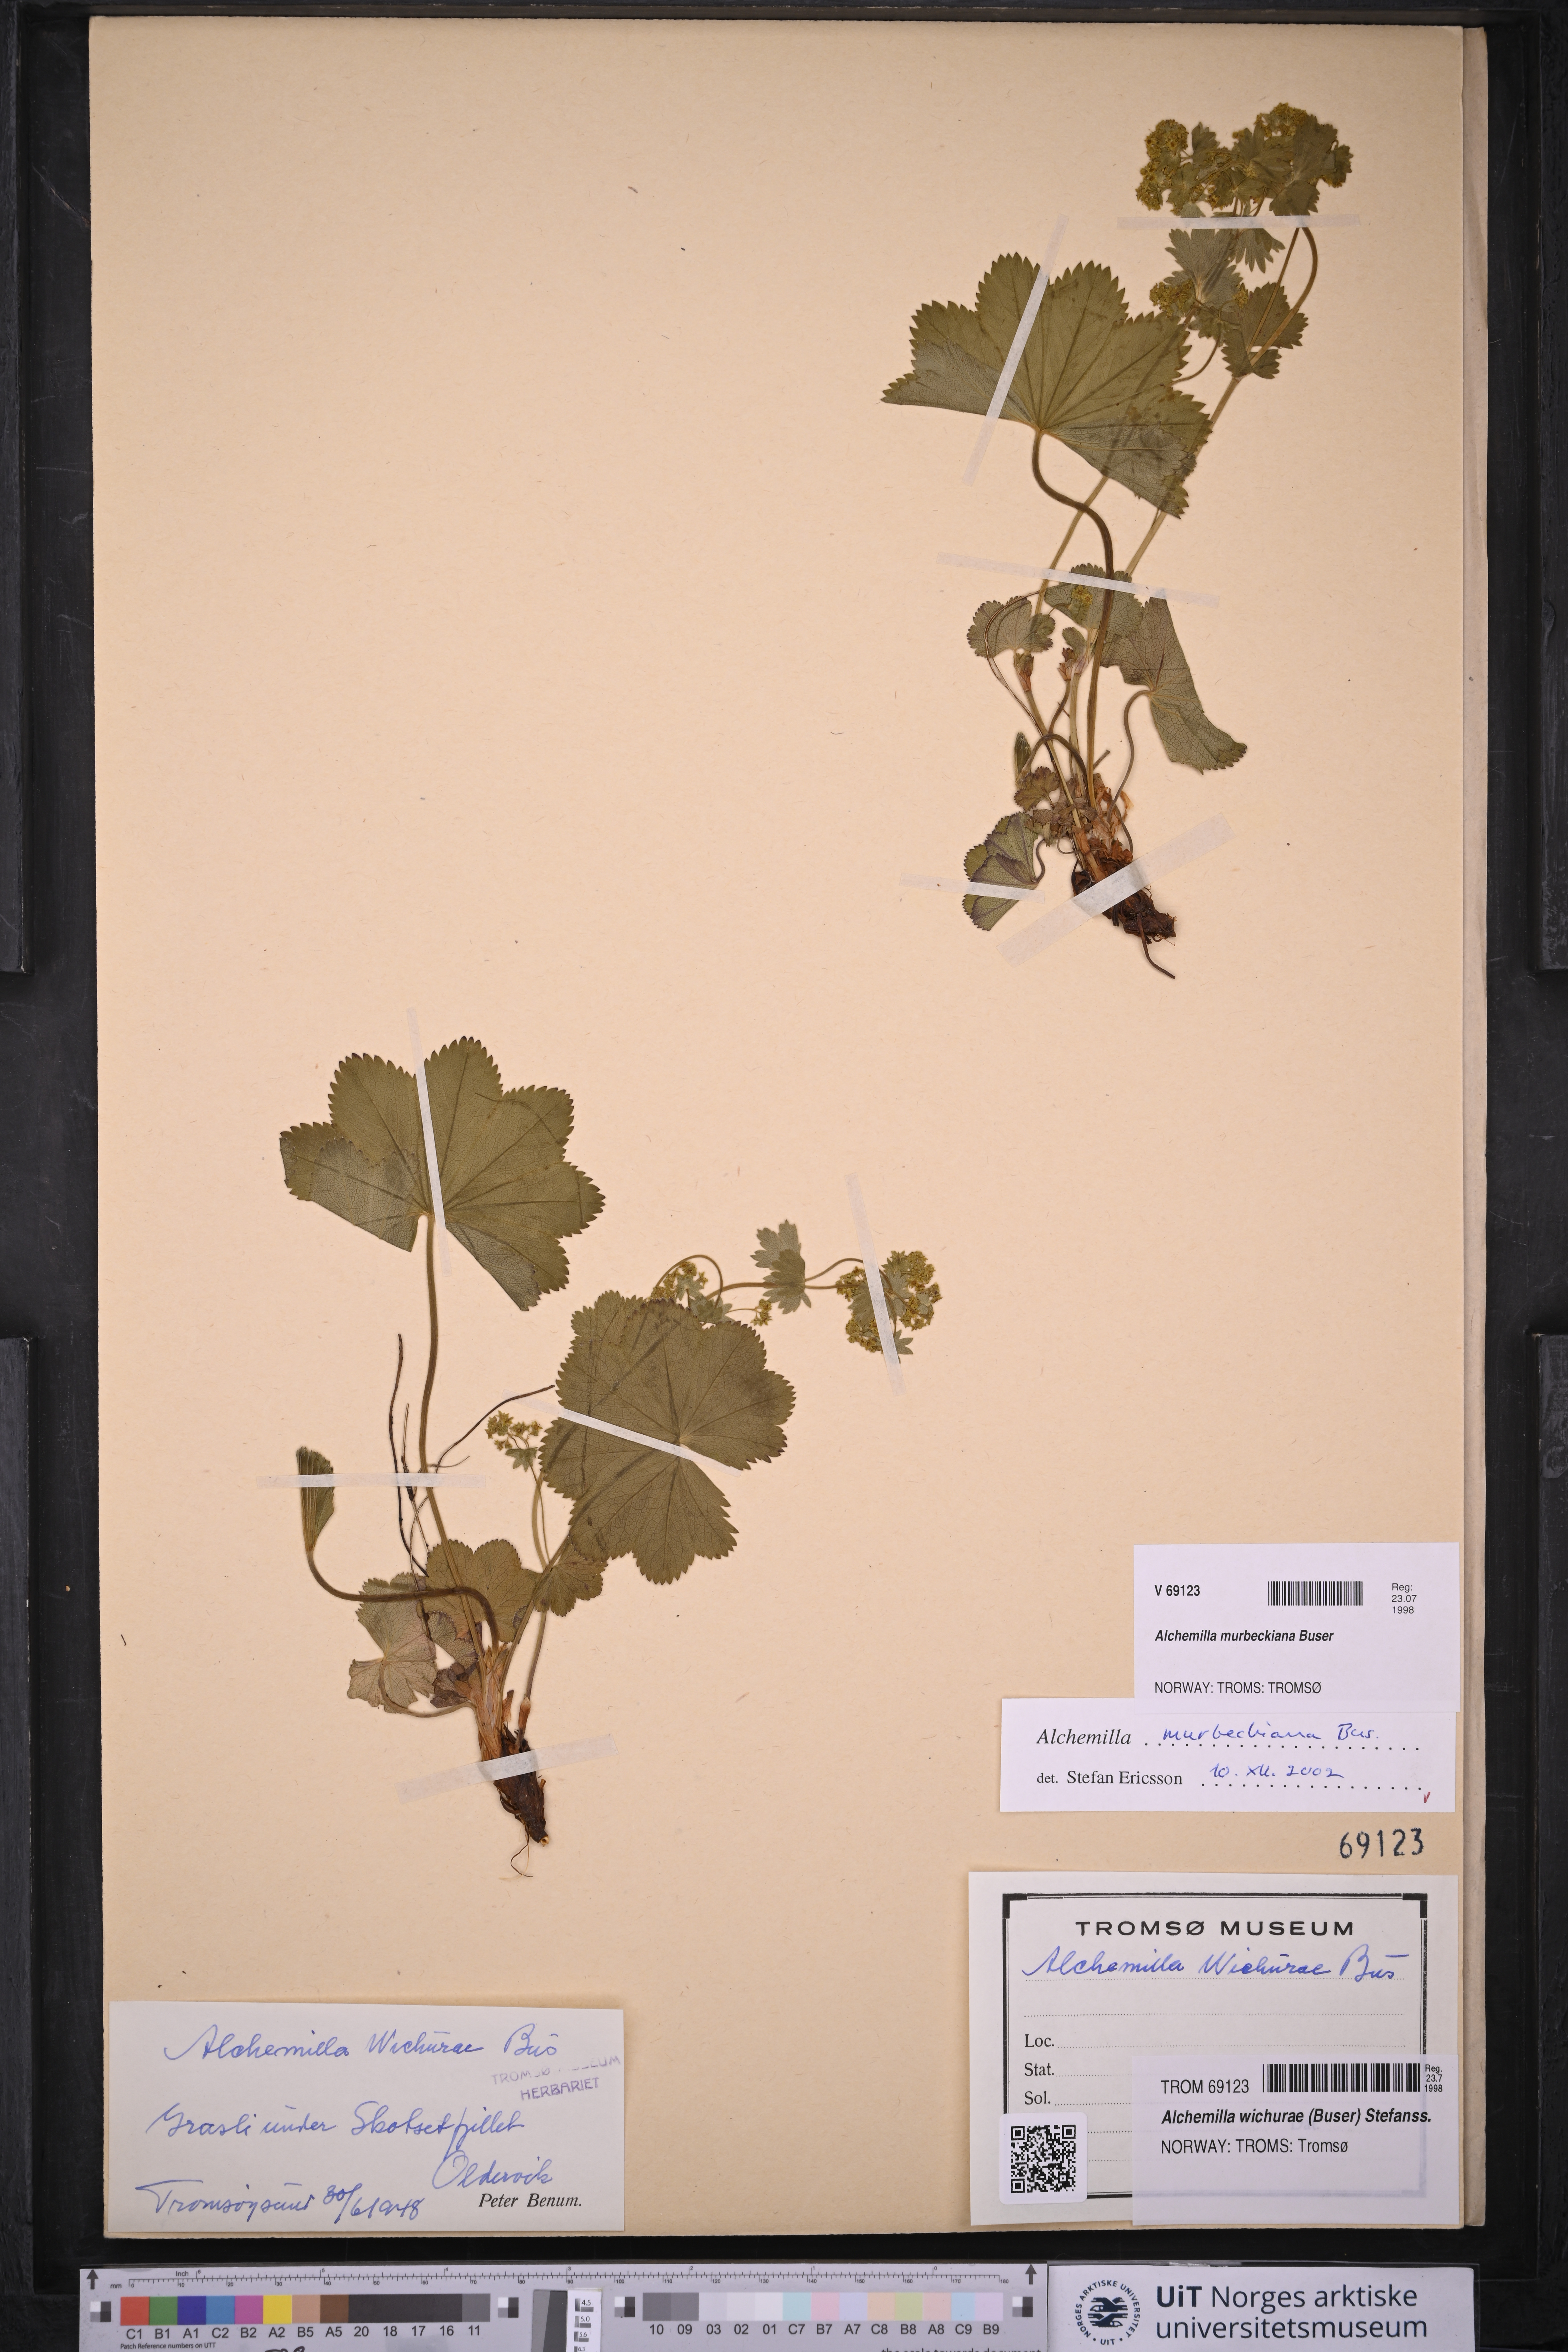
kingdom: Plantae
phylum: Tracheophyta
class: Magnoliopsida
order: Rosales
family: Rosaceae
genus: Alchemilla
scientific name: Alchemilla murbeckiana
